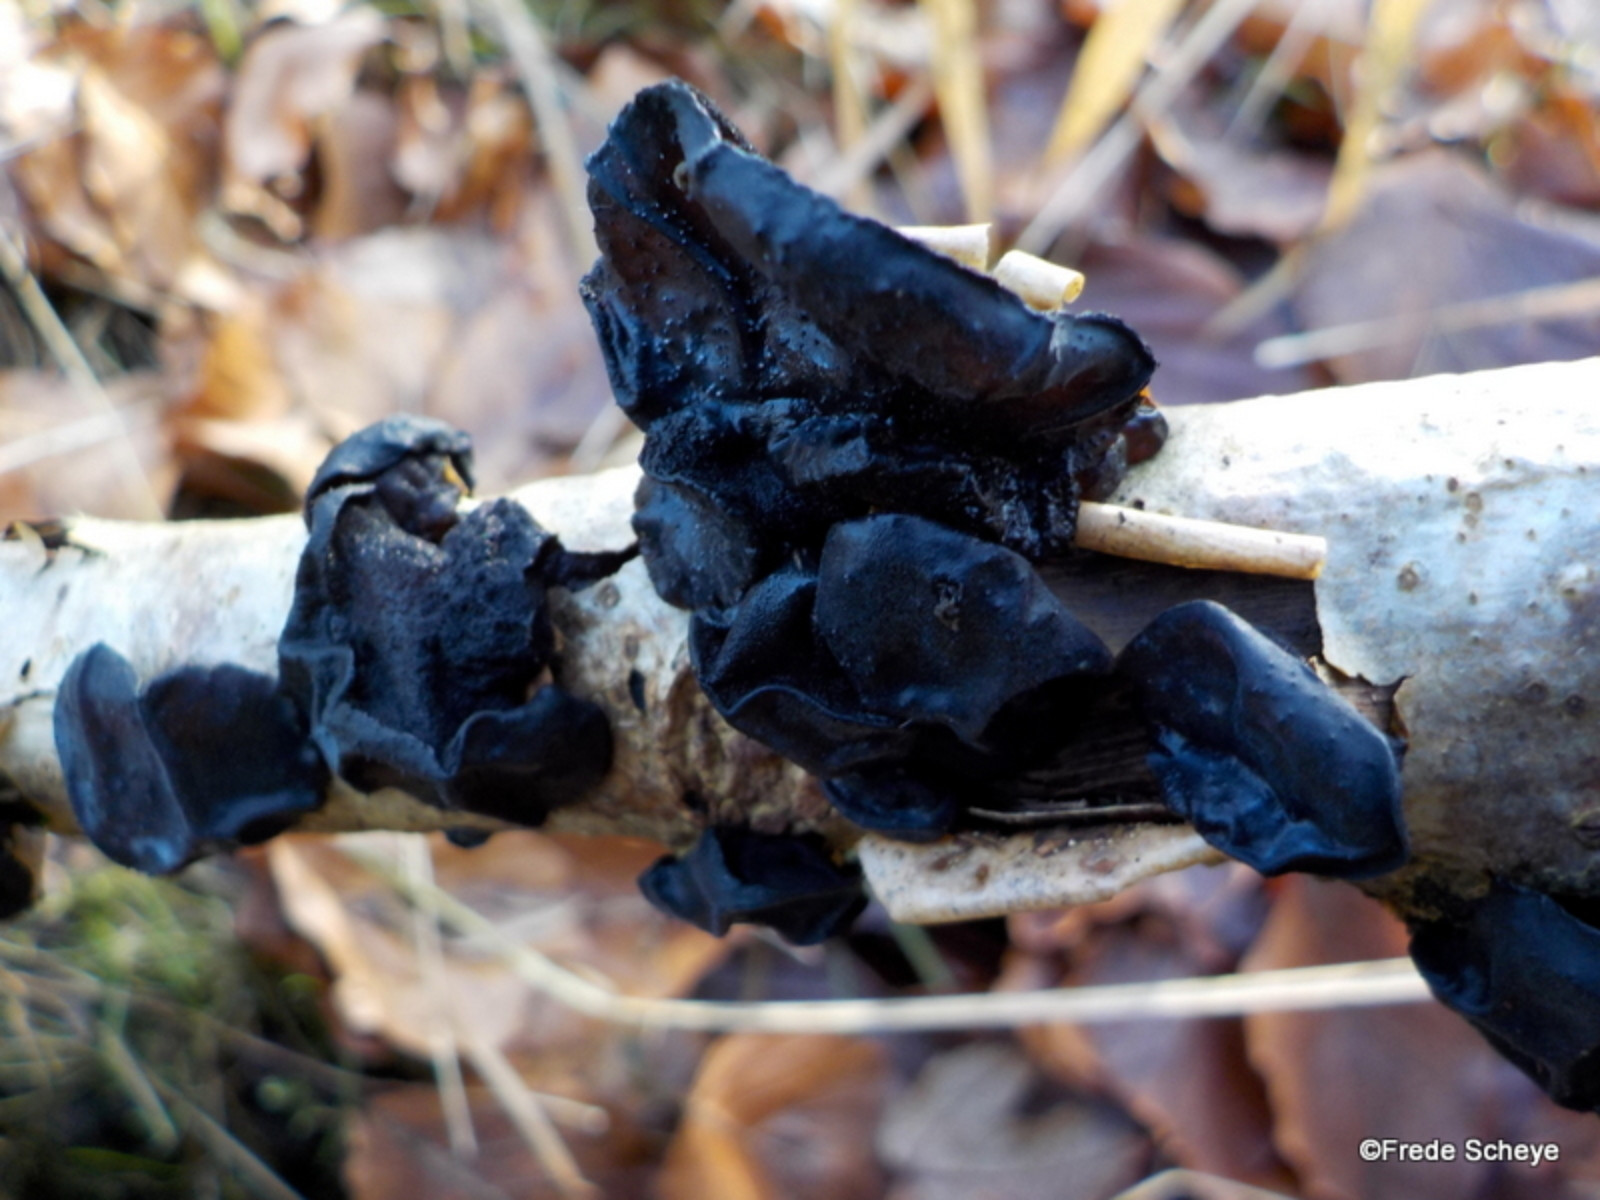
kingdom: Fungi
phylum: Basidiomycota
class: Agaricomycetes
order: Auriculariales
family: Auriculariaceae
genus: Exidia
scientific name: Exidia glandulosa
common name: ege-bævretop
